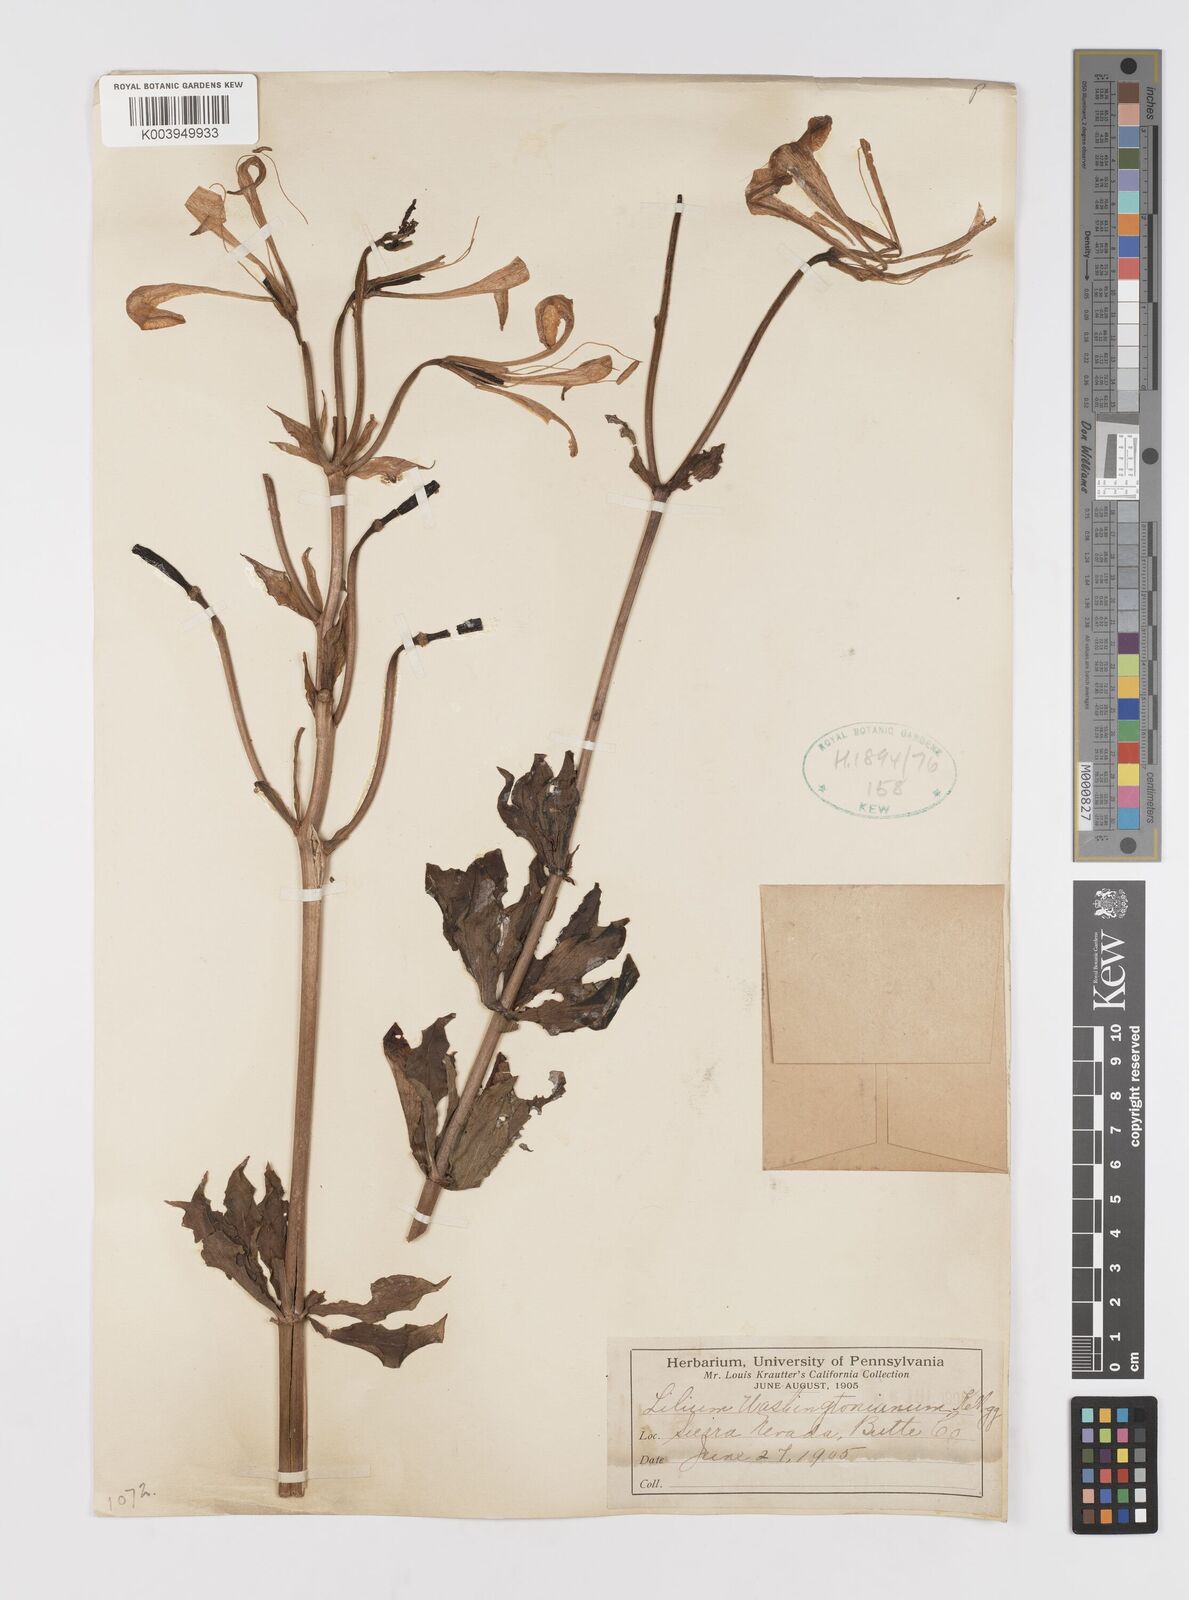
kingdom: Plantae
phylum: Tracheophyta
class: Liliopsida
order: Liliales
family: Liliaceae
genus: Lilium
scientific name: Lilium washingtonianum
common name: Washington lily
